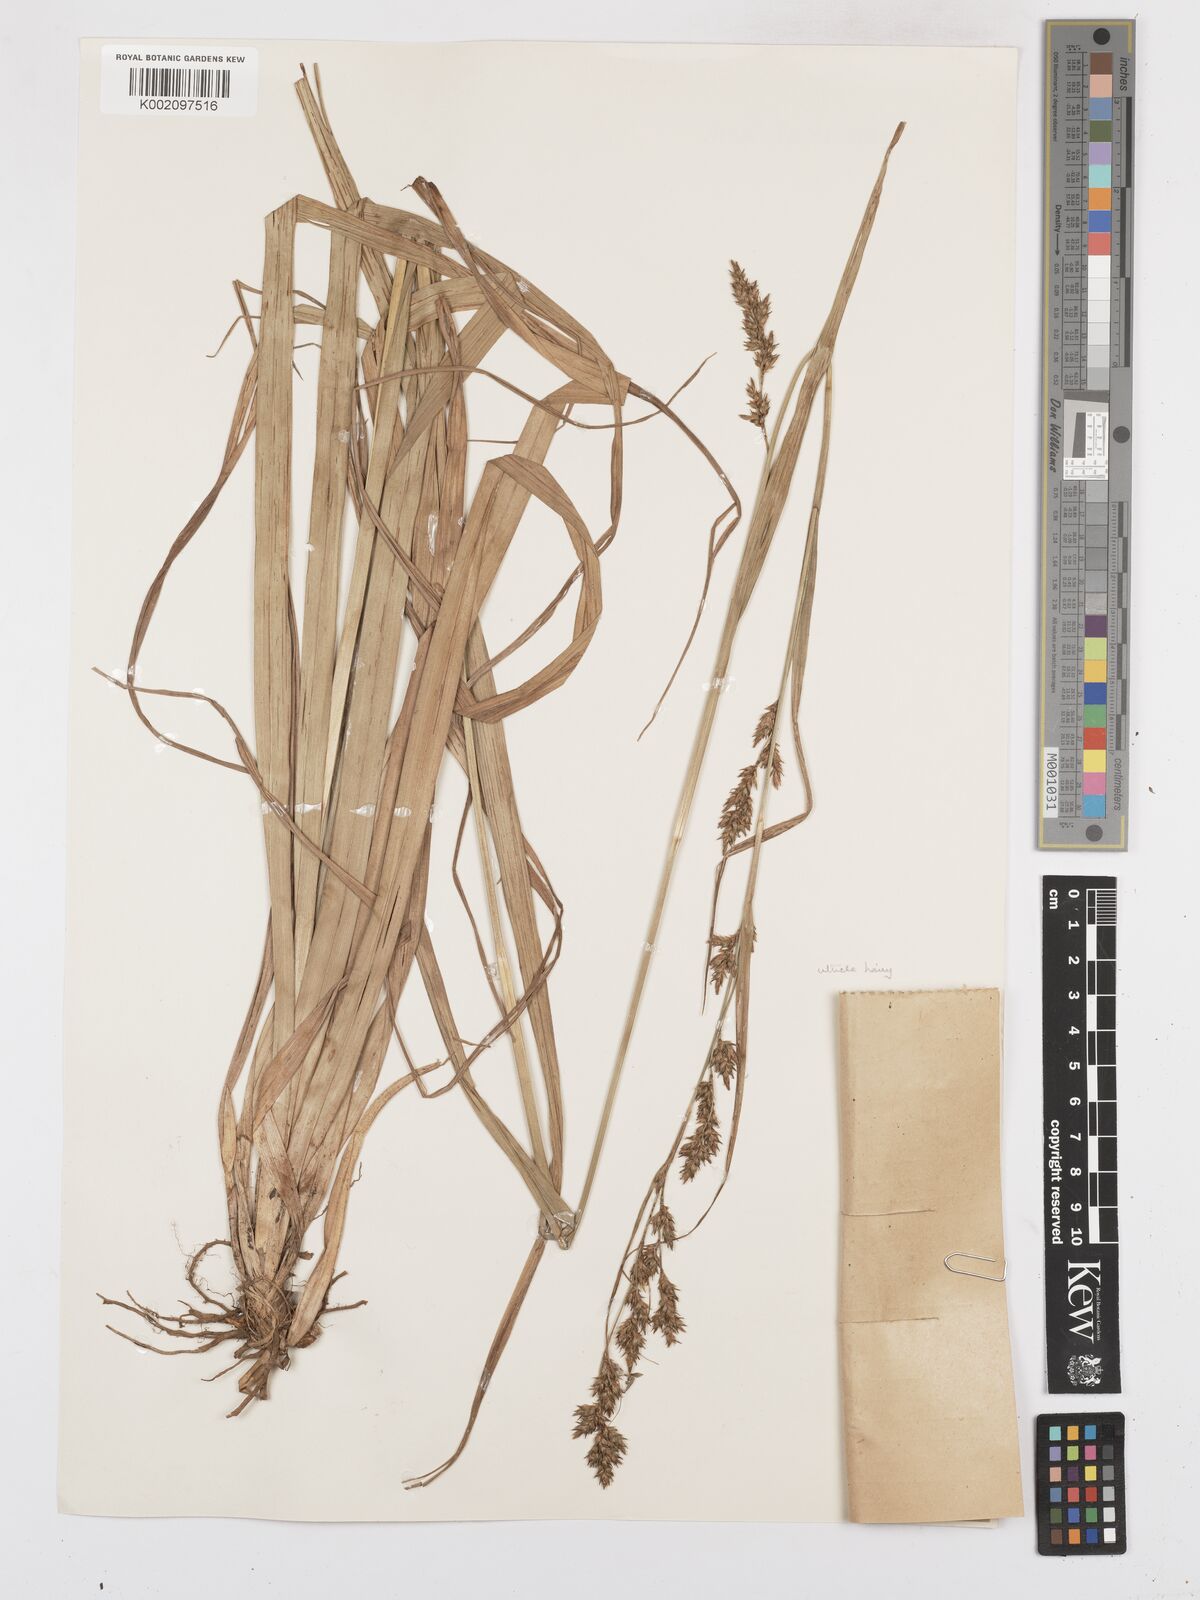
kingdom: Plantae
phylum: Tracheophyta
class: Liliopsida
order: Poales
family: Cyperaceae
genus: Carex
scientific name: Carex spicatopaniculata
